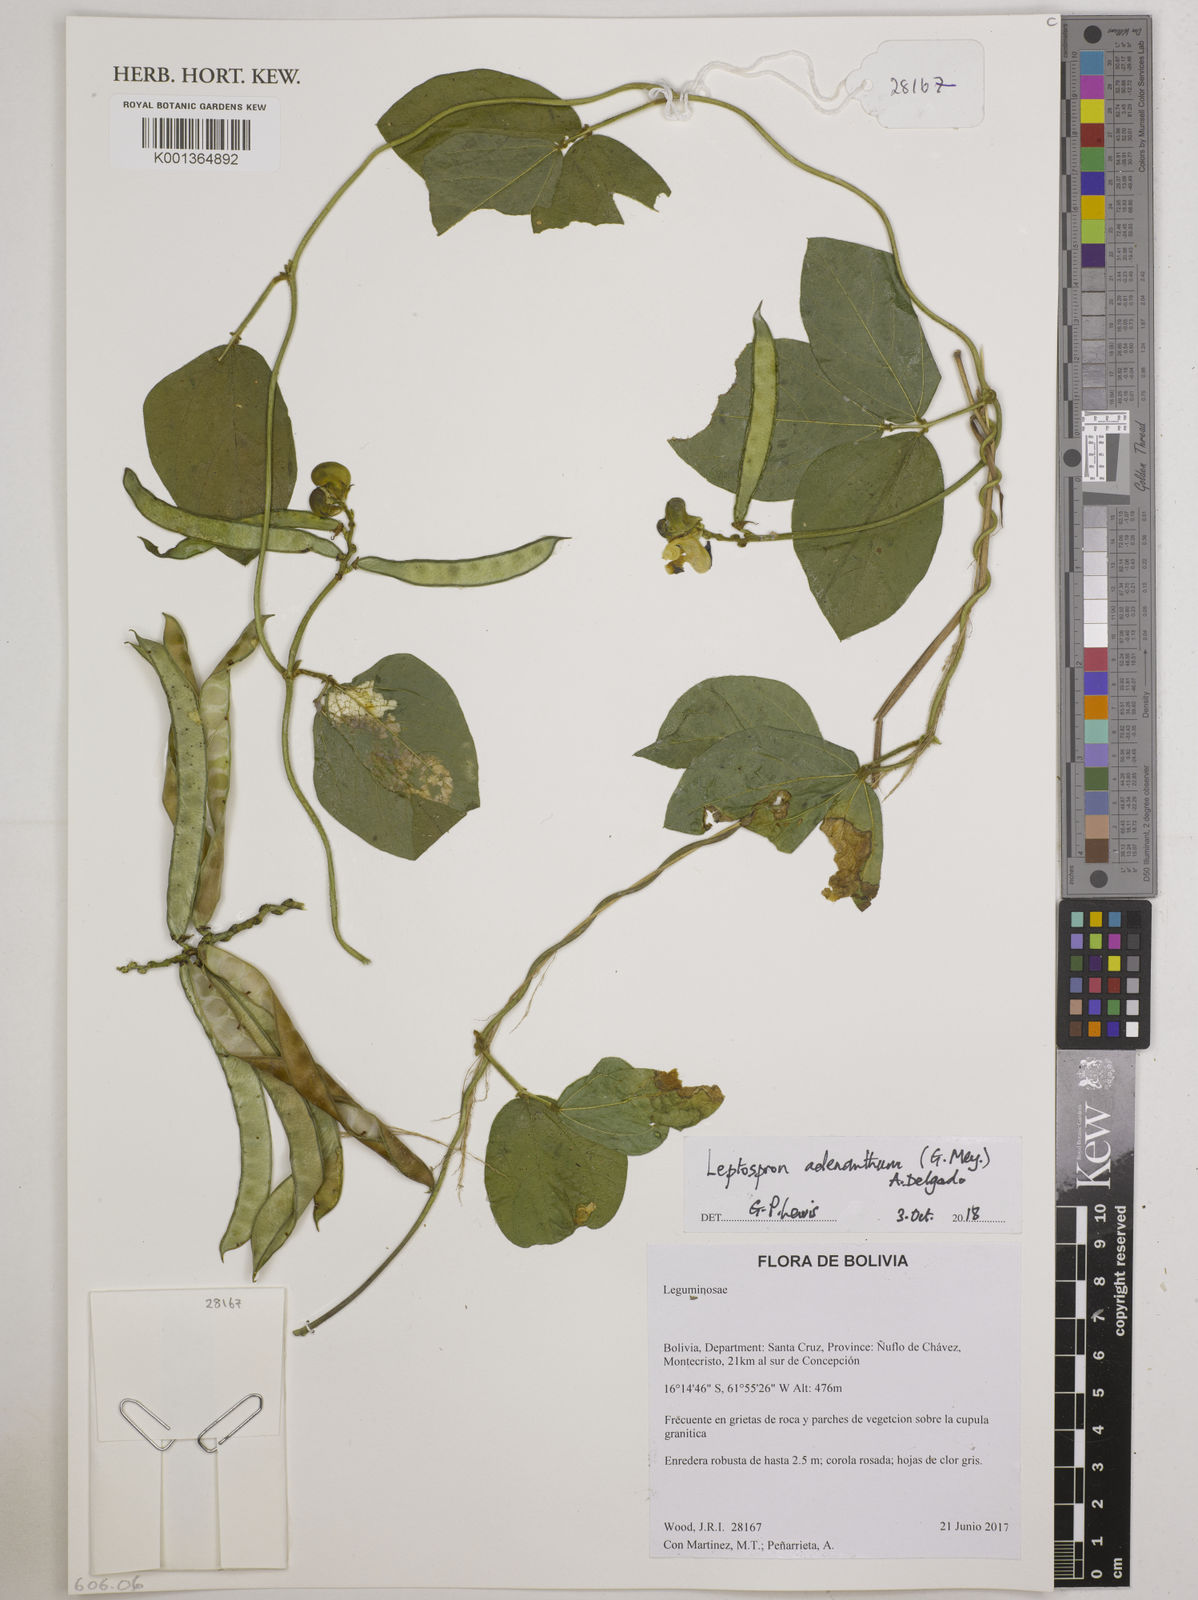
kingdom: Plantae
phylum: Tracheophyta
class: Magnoliopsida
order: Fabales
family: Fabaceae
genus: Leptospron
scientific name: Leptospron adenanthum
